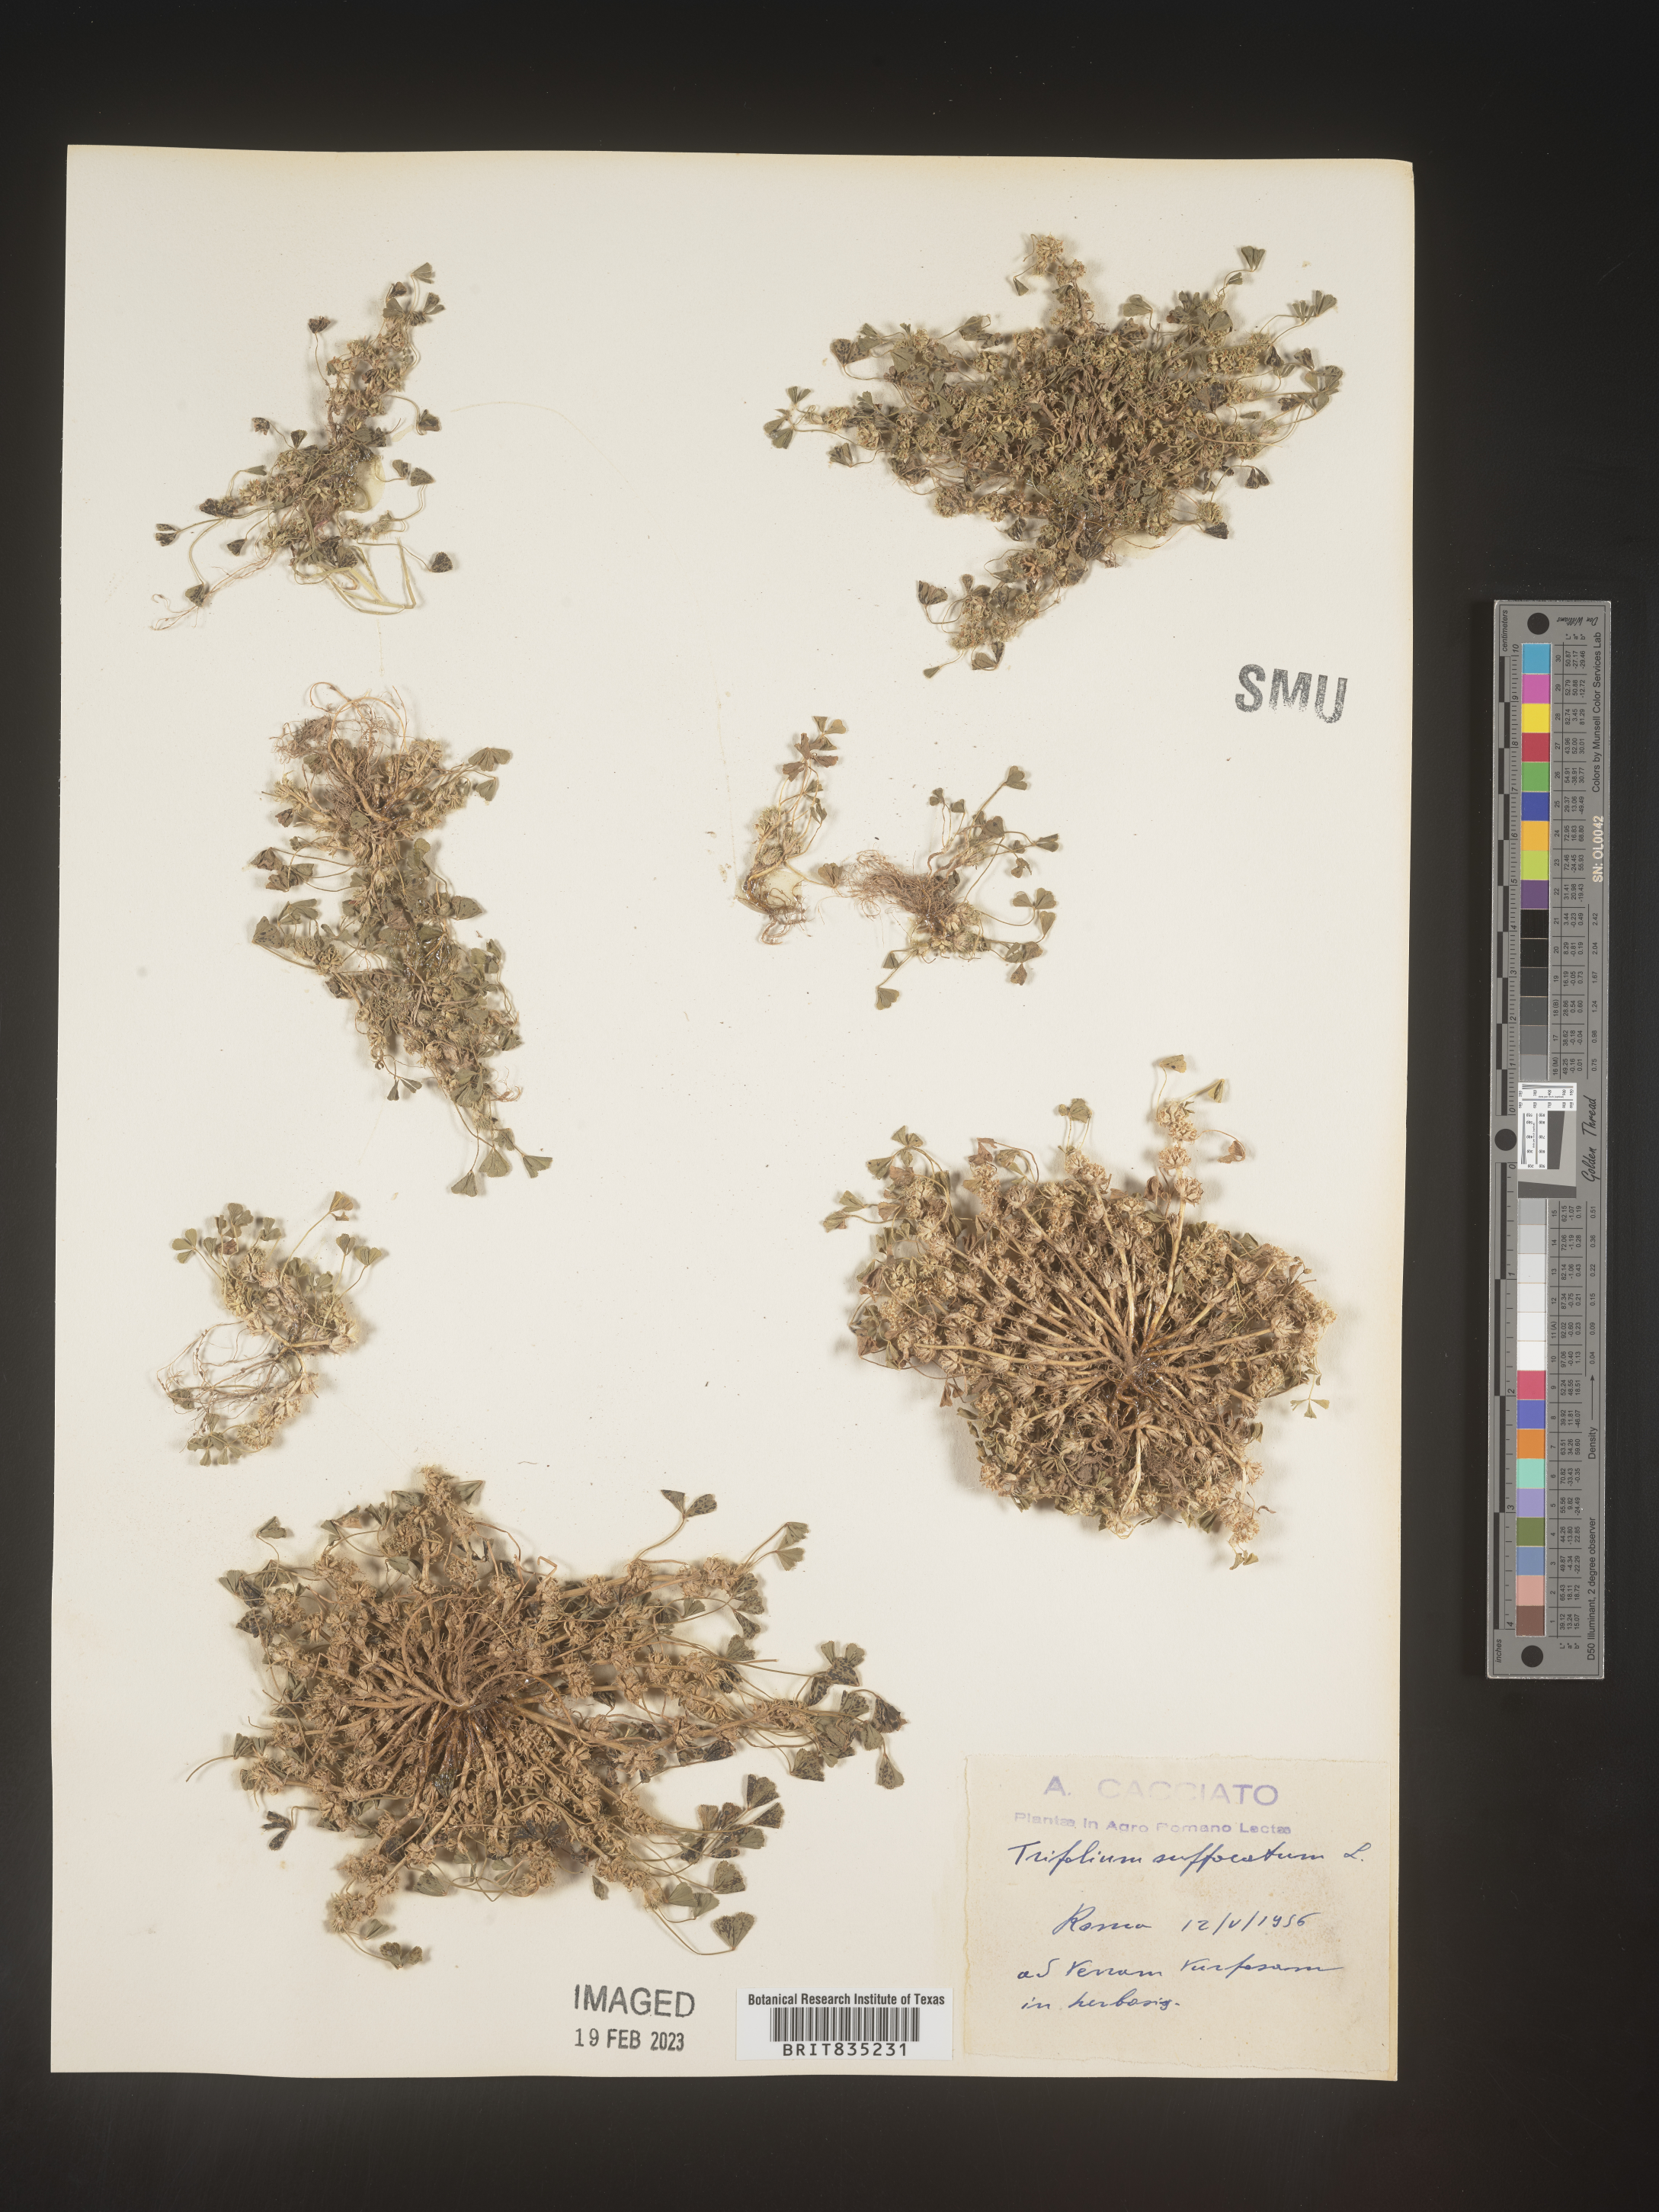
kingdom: Plantae
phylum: Tracheophyta
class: Magnoliopsida
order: Fabales
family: Fabaceae
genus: Trifolium
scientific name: Trifolium
